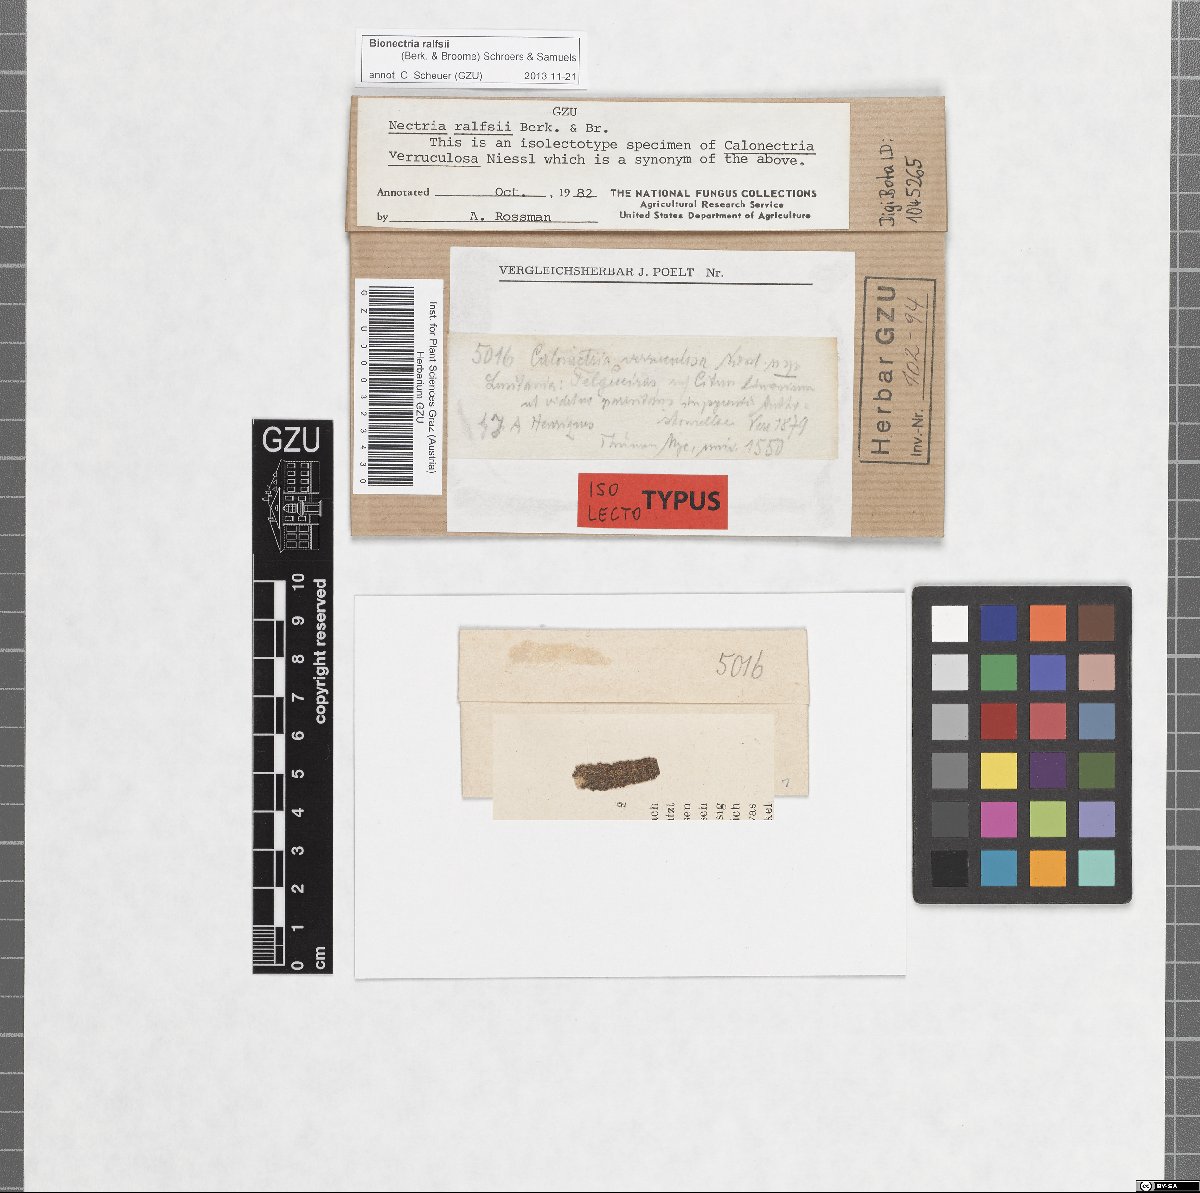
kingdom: Fungi
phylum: Ascomycota
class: Sordariomycetes
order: Hypocreales
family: Bionectriaceae
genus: Bionectria
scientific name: Bionectria ralfsii
